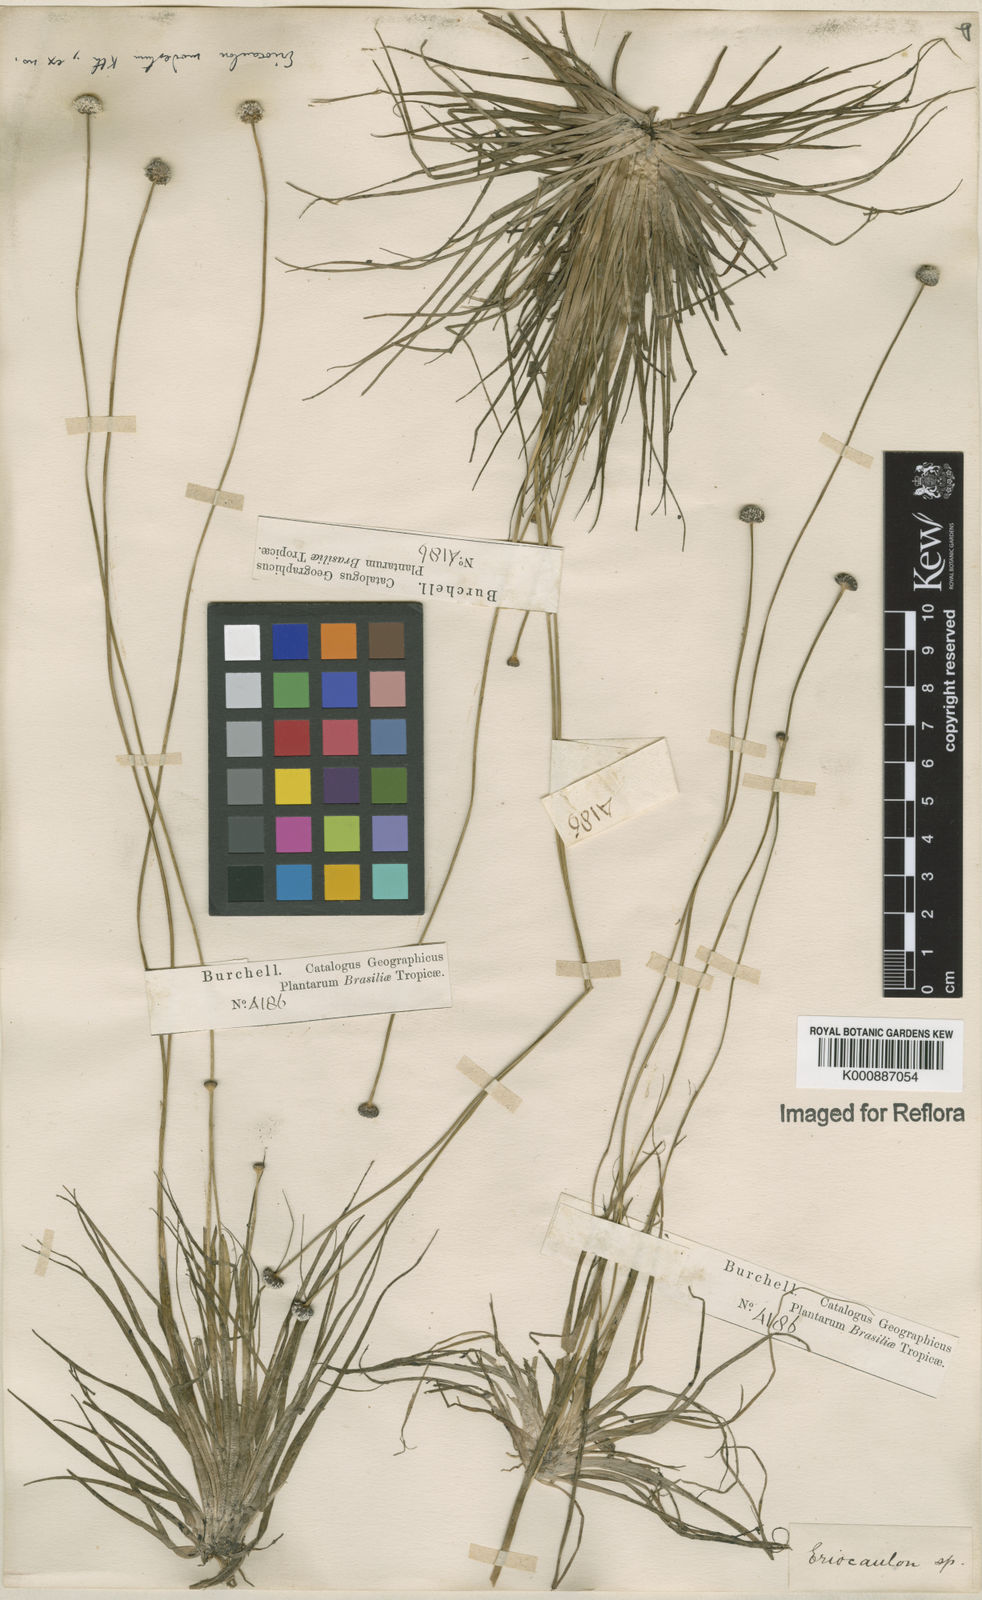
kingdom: Plantae
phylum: Tracheophyta
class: Liliopsida
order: Poales
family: Eriocaulaceae
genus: Eriocaulon
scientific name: Eriocaulon modestum
